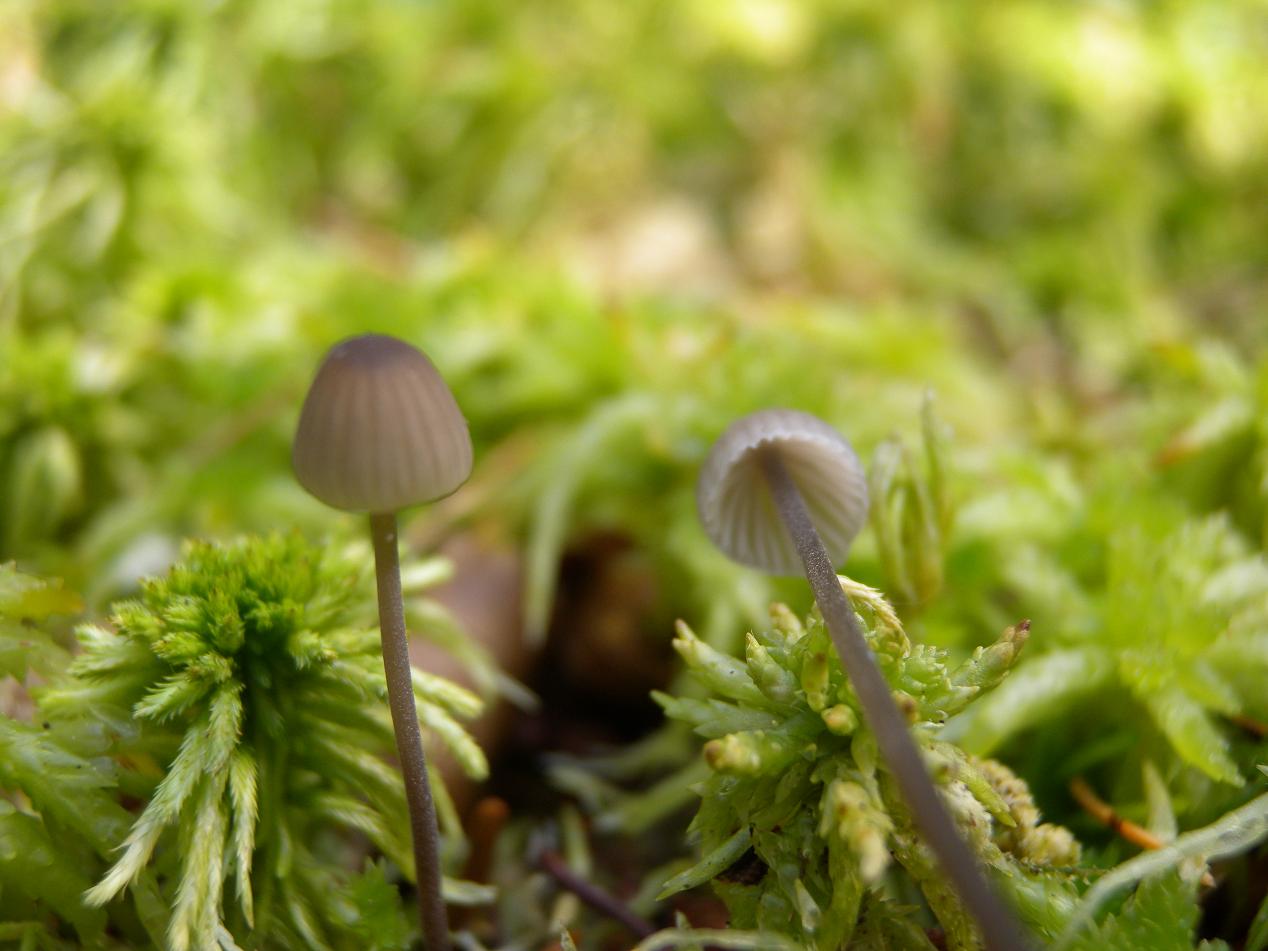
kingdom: Fungi
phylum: Basidiomycota
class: Agaricomycetes
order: Agaricales
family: Mycenaceae
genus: Mycena
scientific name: Mycena galopus
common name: hvidmælket huesvamp
